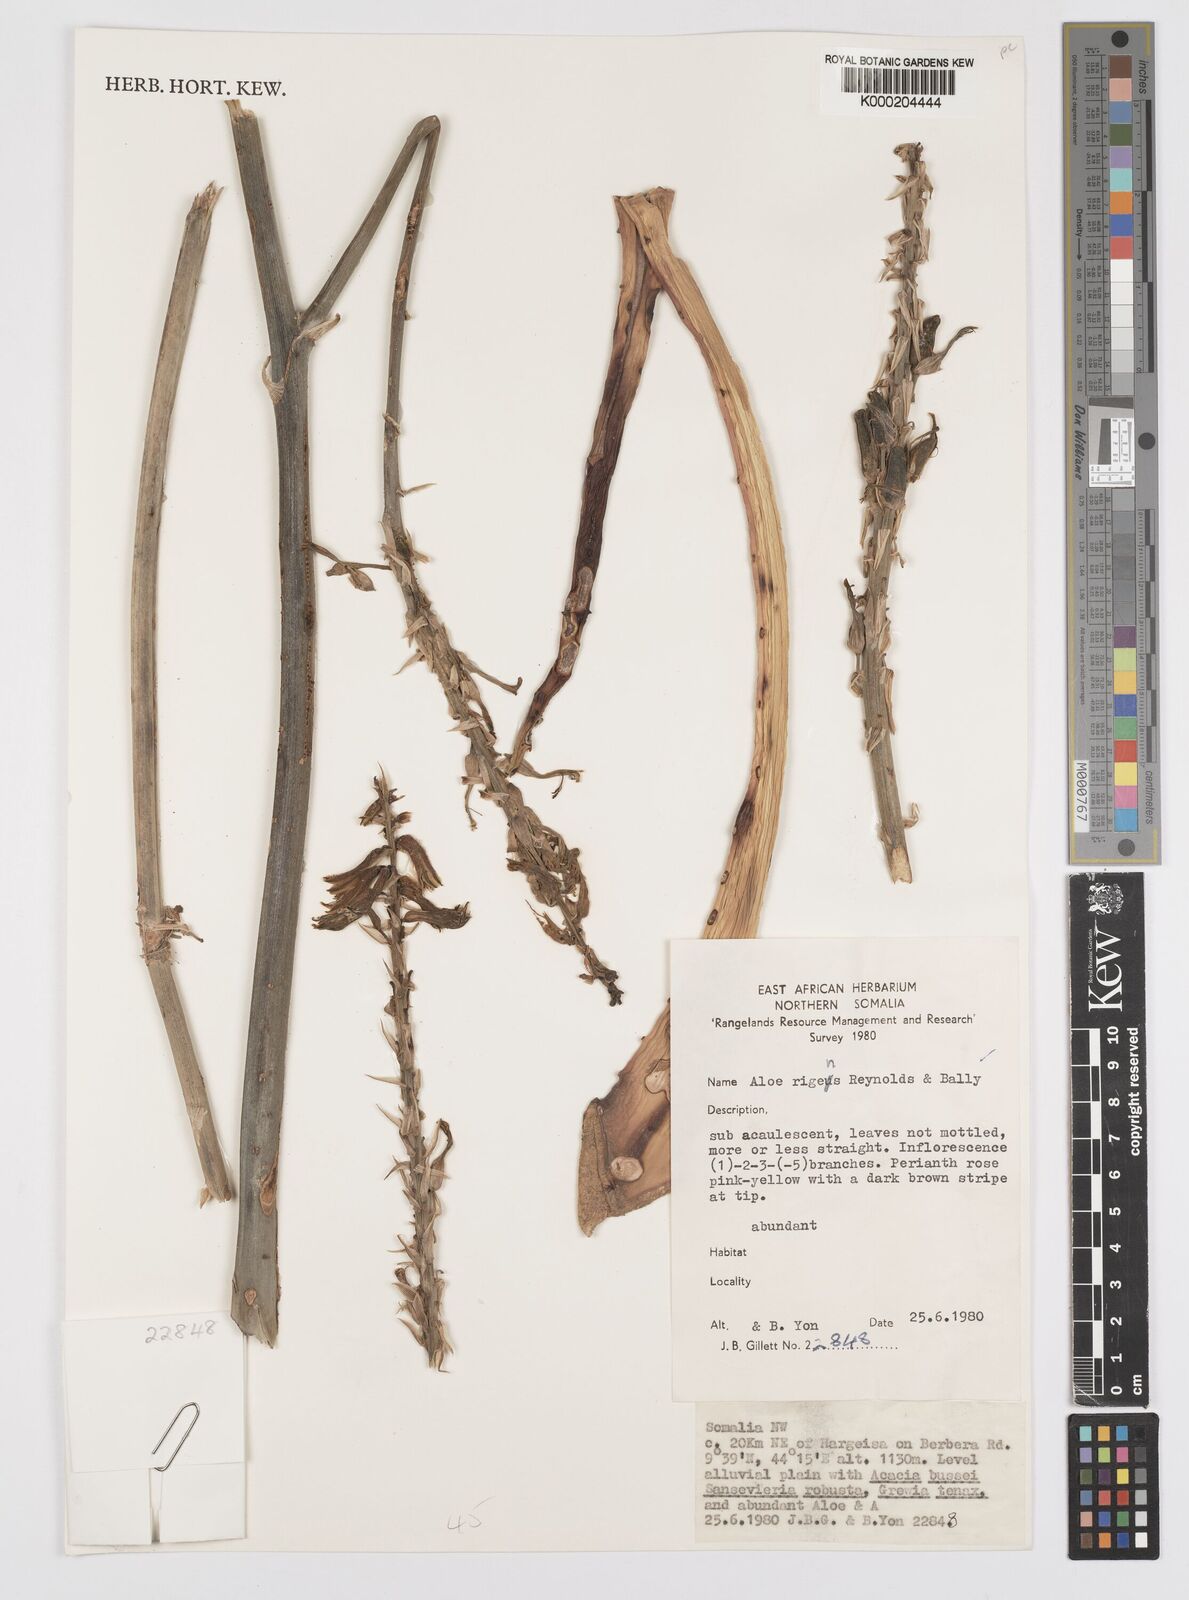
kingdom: Plantae
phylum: Tracheophyta
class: Liliopsida
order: Asparagales
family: Asphodelaceae
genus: Aloe
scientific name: Aloe rigens
